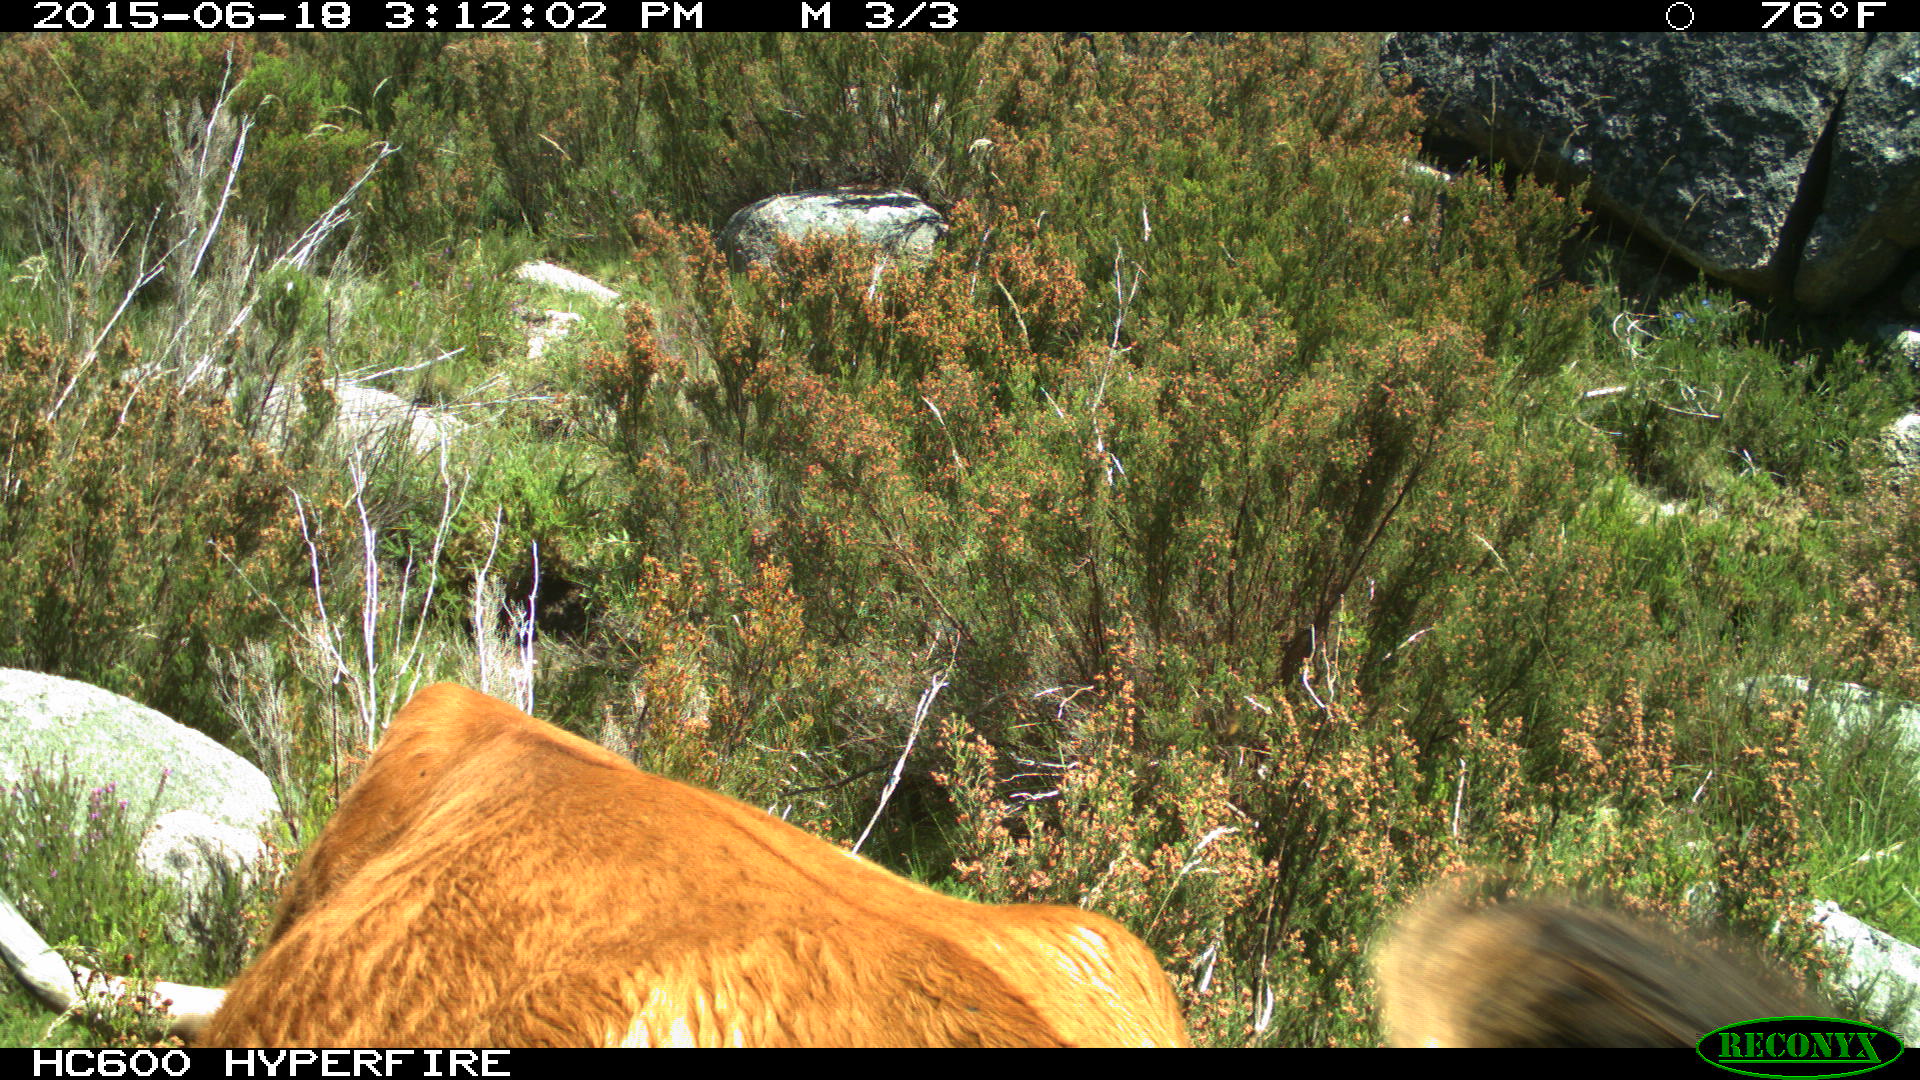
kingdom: Animalia
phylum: Chordata
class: Mammalia
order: Artiodactyla
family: Bovidae
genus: Bos
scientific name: Bos taurus
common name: Domesticated cattle
